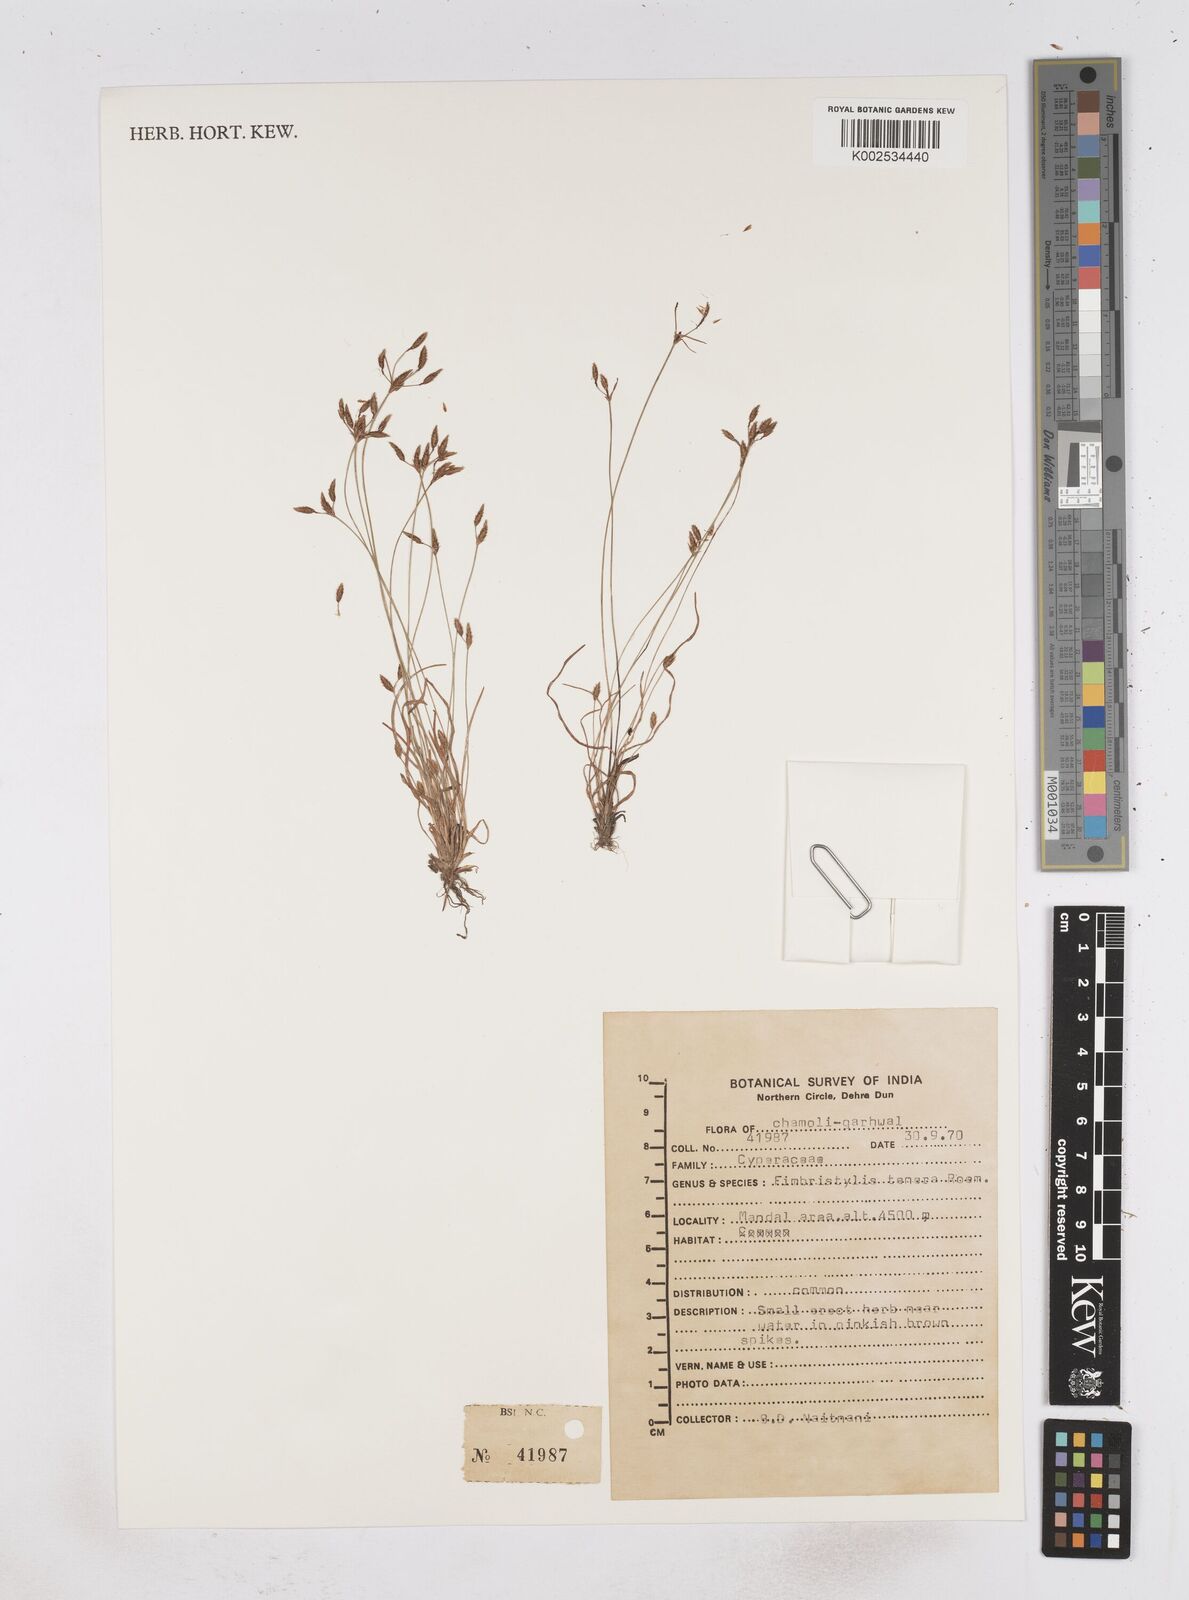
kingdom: Plantae
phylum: Tracheophyta
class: Liliopsida
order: Poales
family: Cyperaceae
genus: Fimbristylis
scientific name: Fimbristylis tenera
